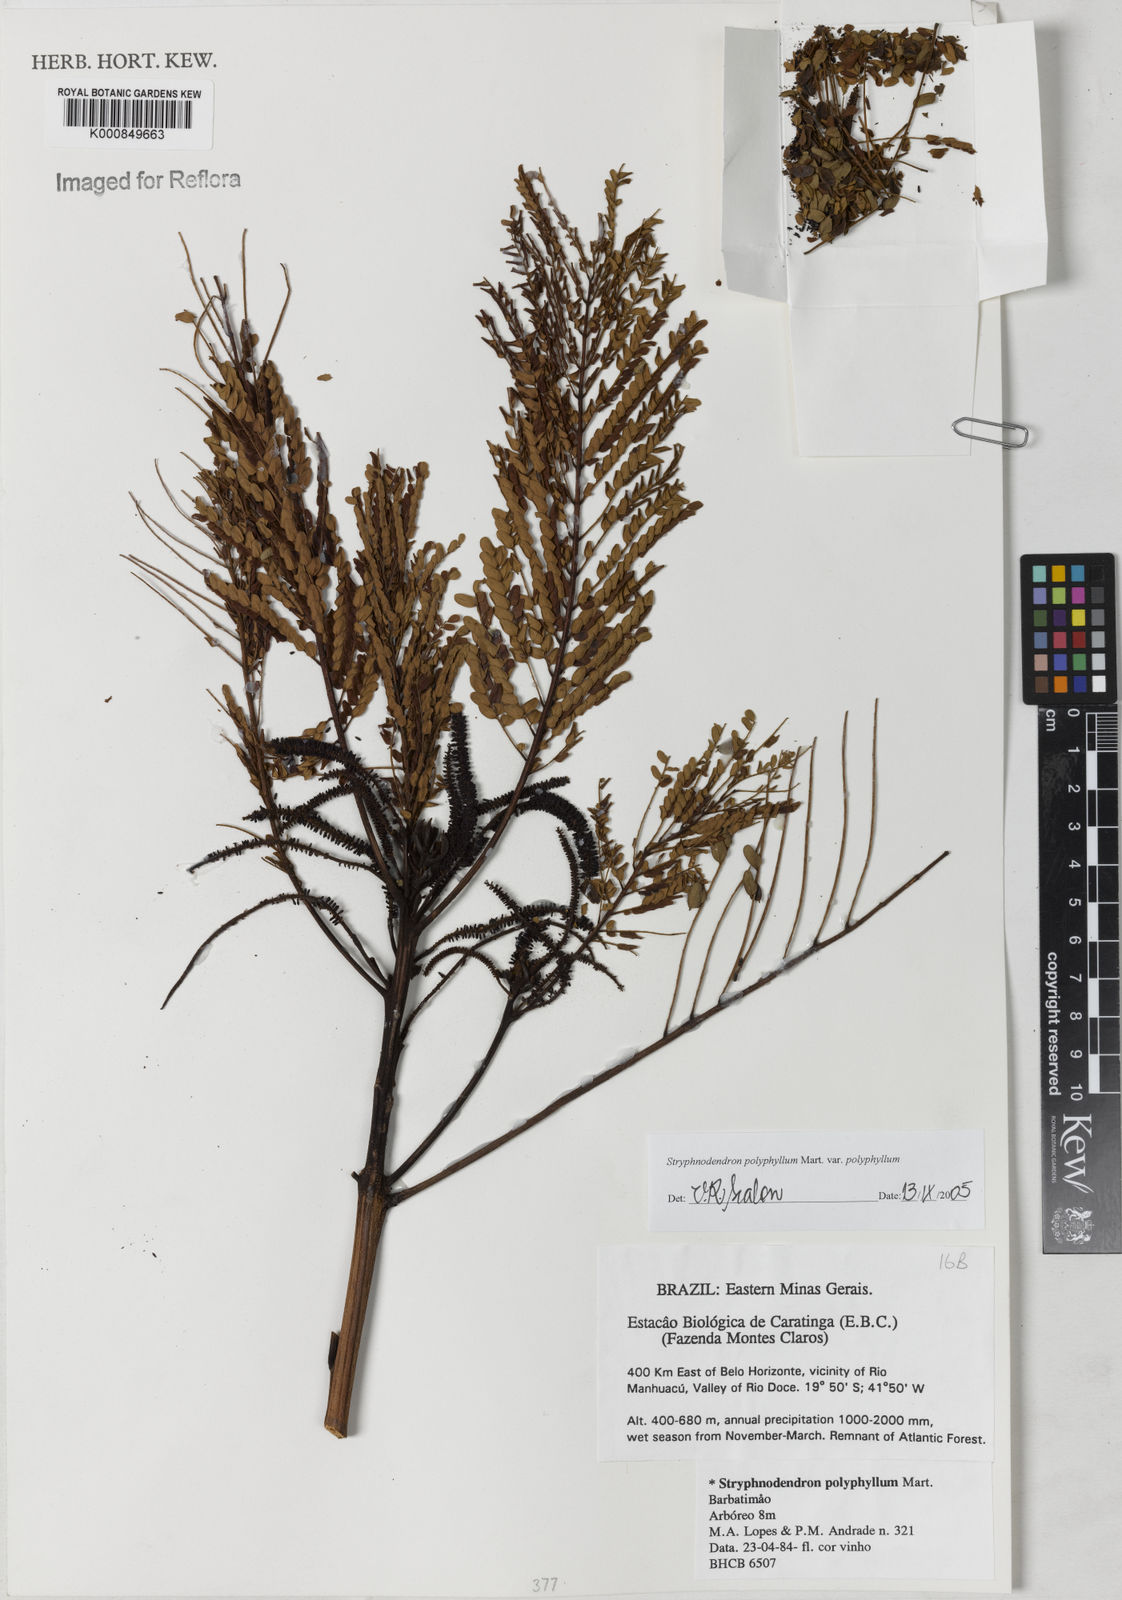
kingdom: Plantae
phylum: Tracheophyta
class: Magnoliopsida
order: Fabales
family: Fabaceae
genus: Stryphnodendron
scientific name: Stryphnodendron polyphyllum
